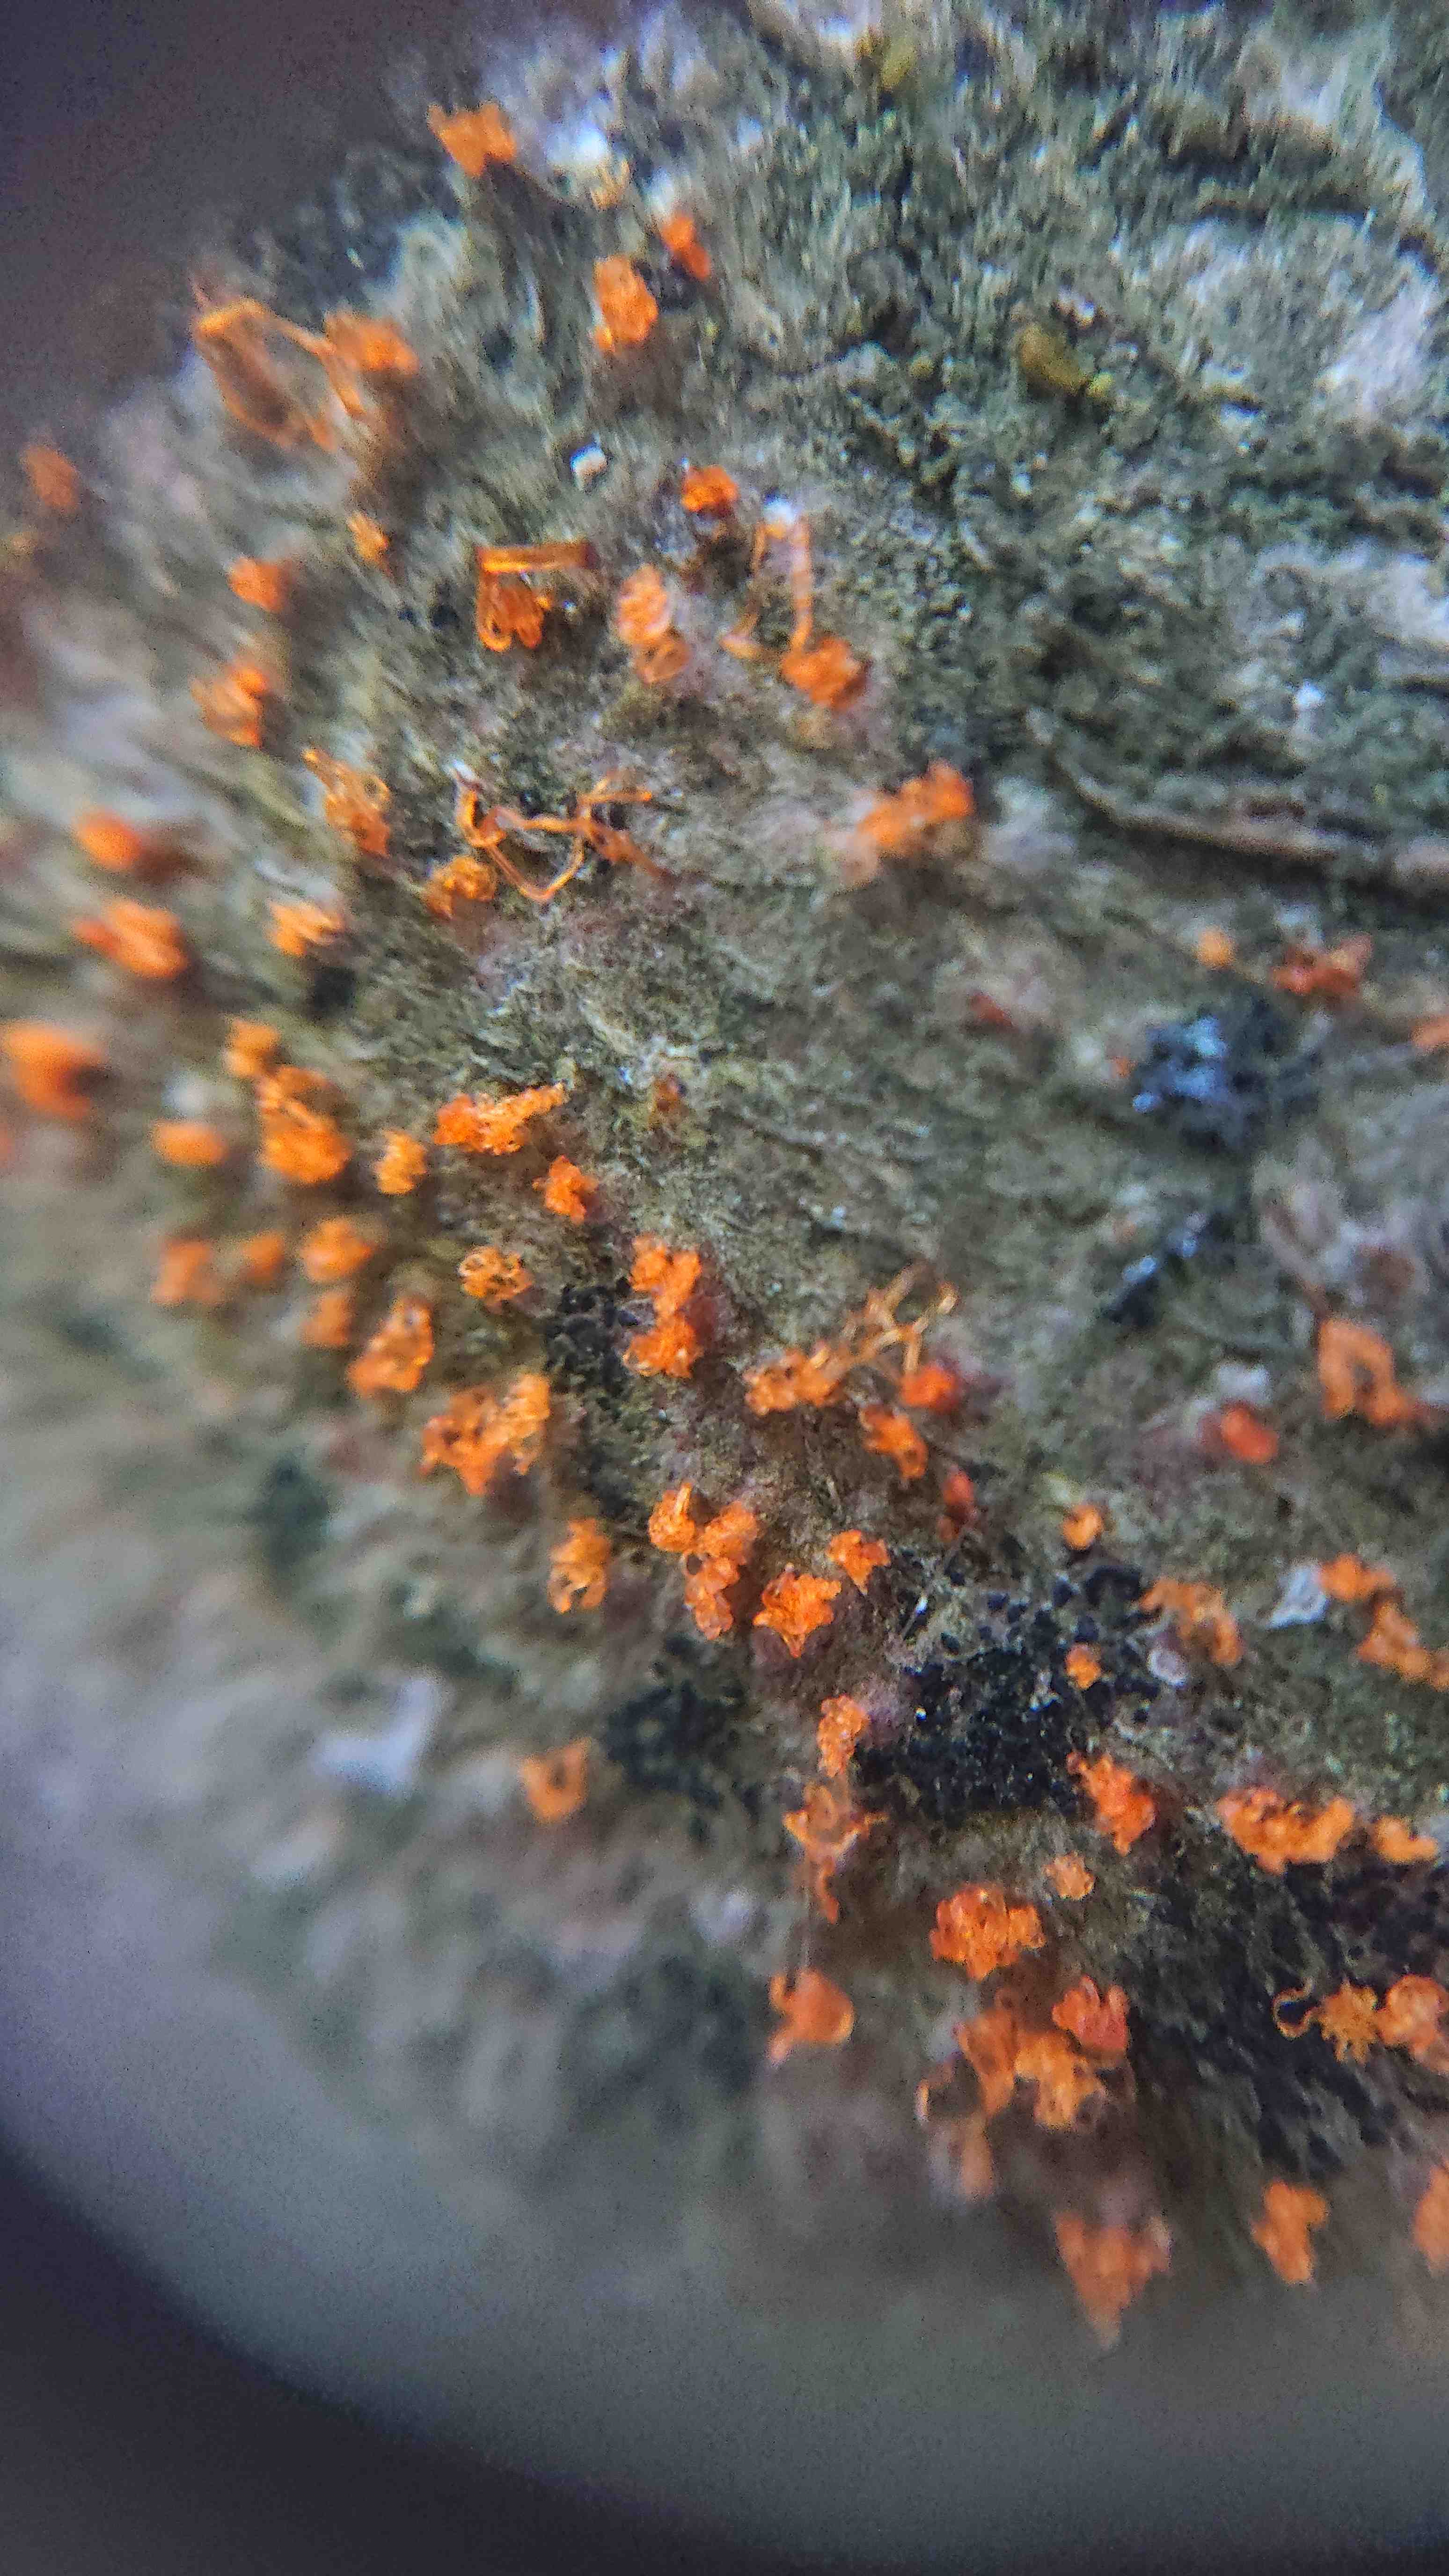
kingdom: Fungi
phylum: Ascomycota
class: Sordariomycetes
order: Xylariales
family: Diatrypaceae
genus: Eutypella
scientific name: Eutypella quaternata
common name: bøge-korsprik
